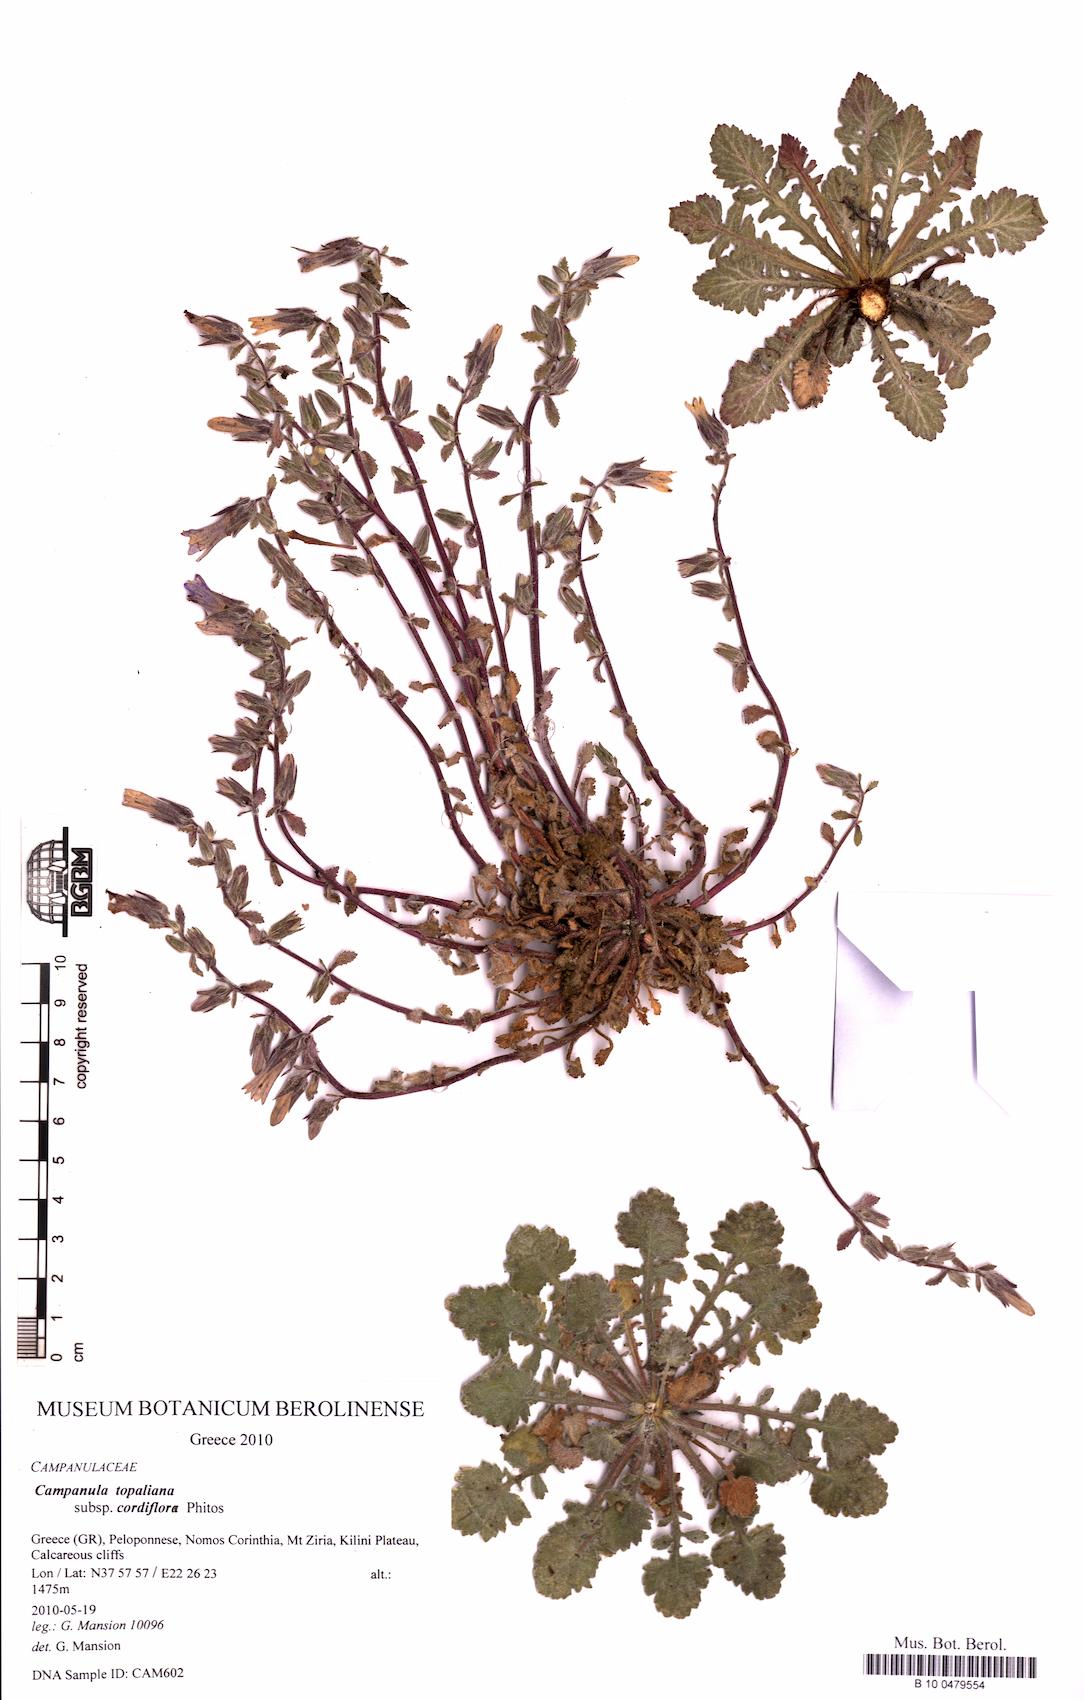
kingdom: Plantae
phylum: Tracheophyta
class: Magnoliopsida
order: Asterales
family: Campanulaceae
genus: Campanula
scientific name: Campanula topaliana
